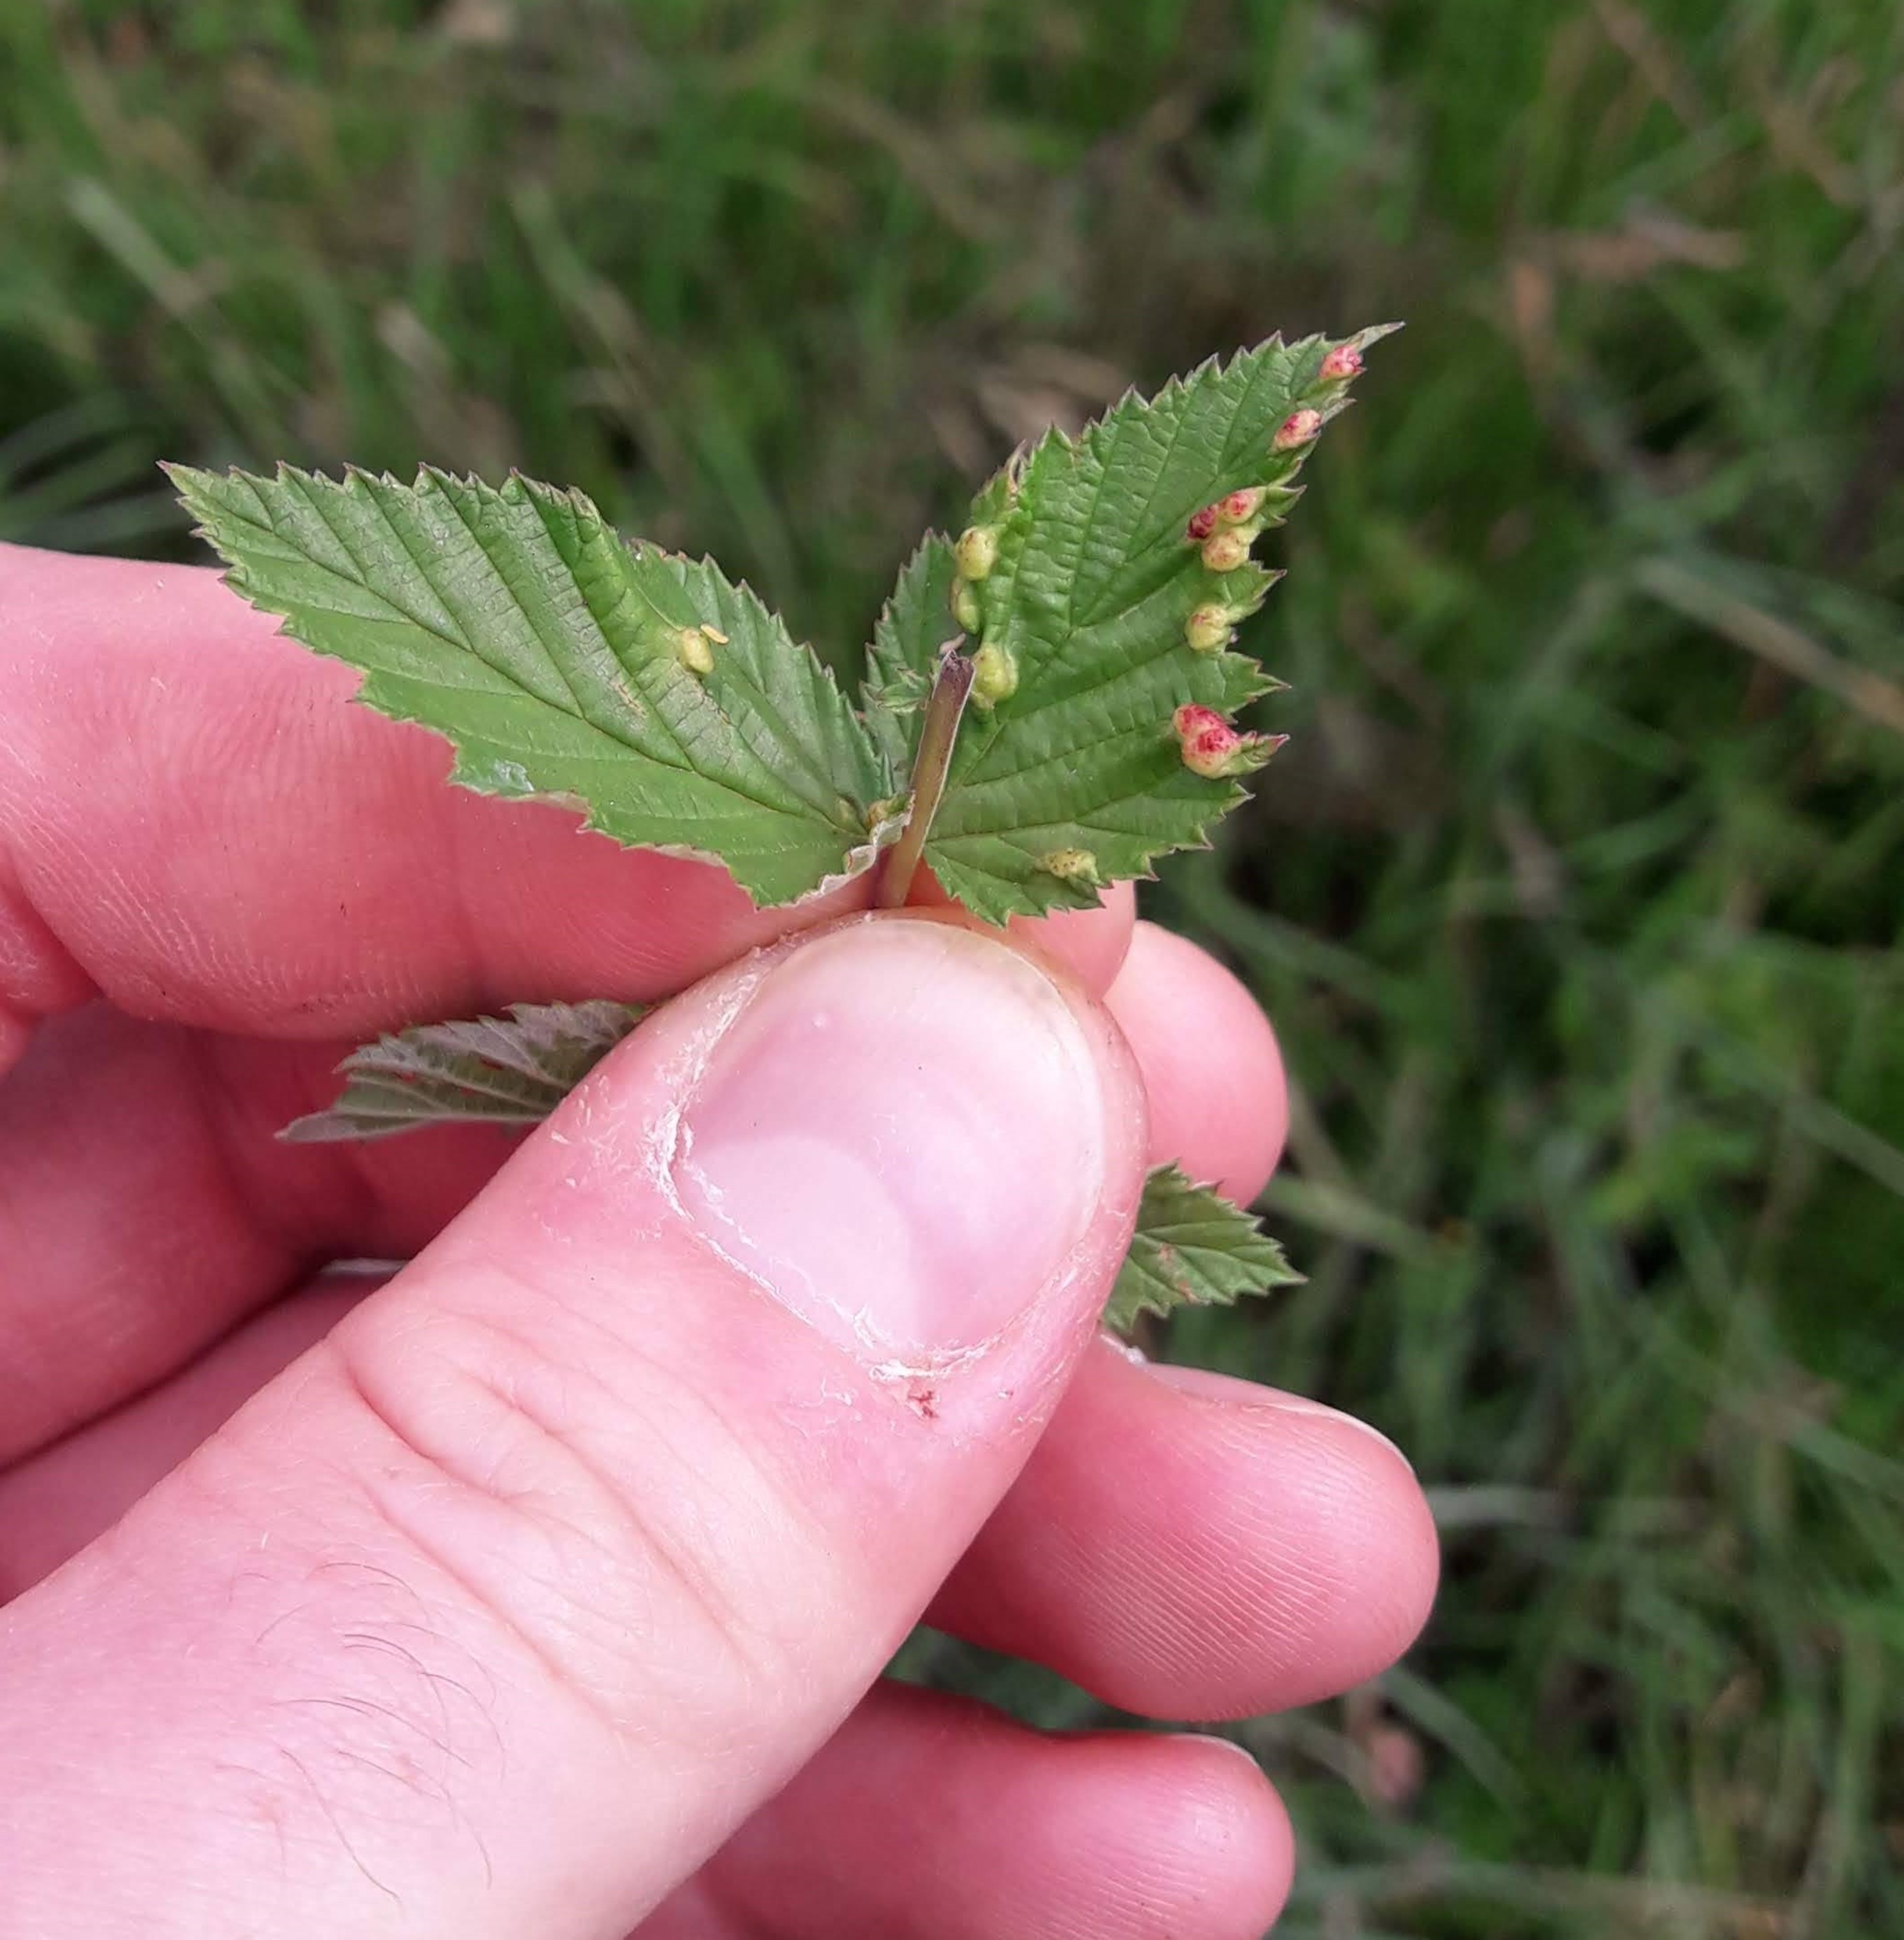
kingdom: Animalia
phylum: Arthropoda
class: Insecta
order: Diptera
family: Cecidomyiidae
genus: Dasineura
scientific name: Dasineura ulmaria
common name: Mjødurtgalmyg
